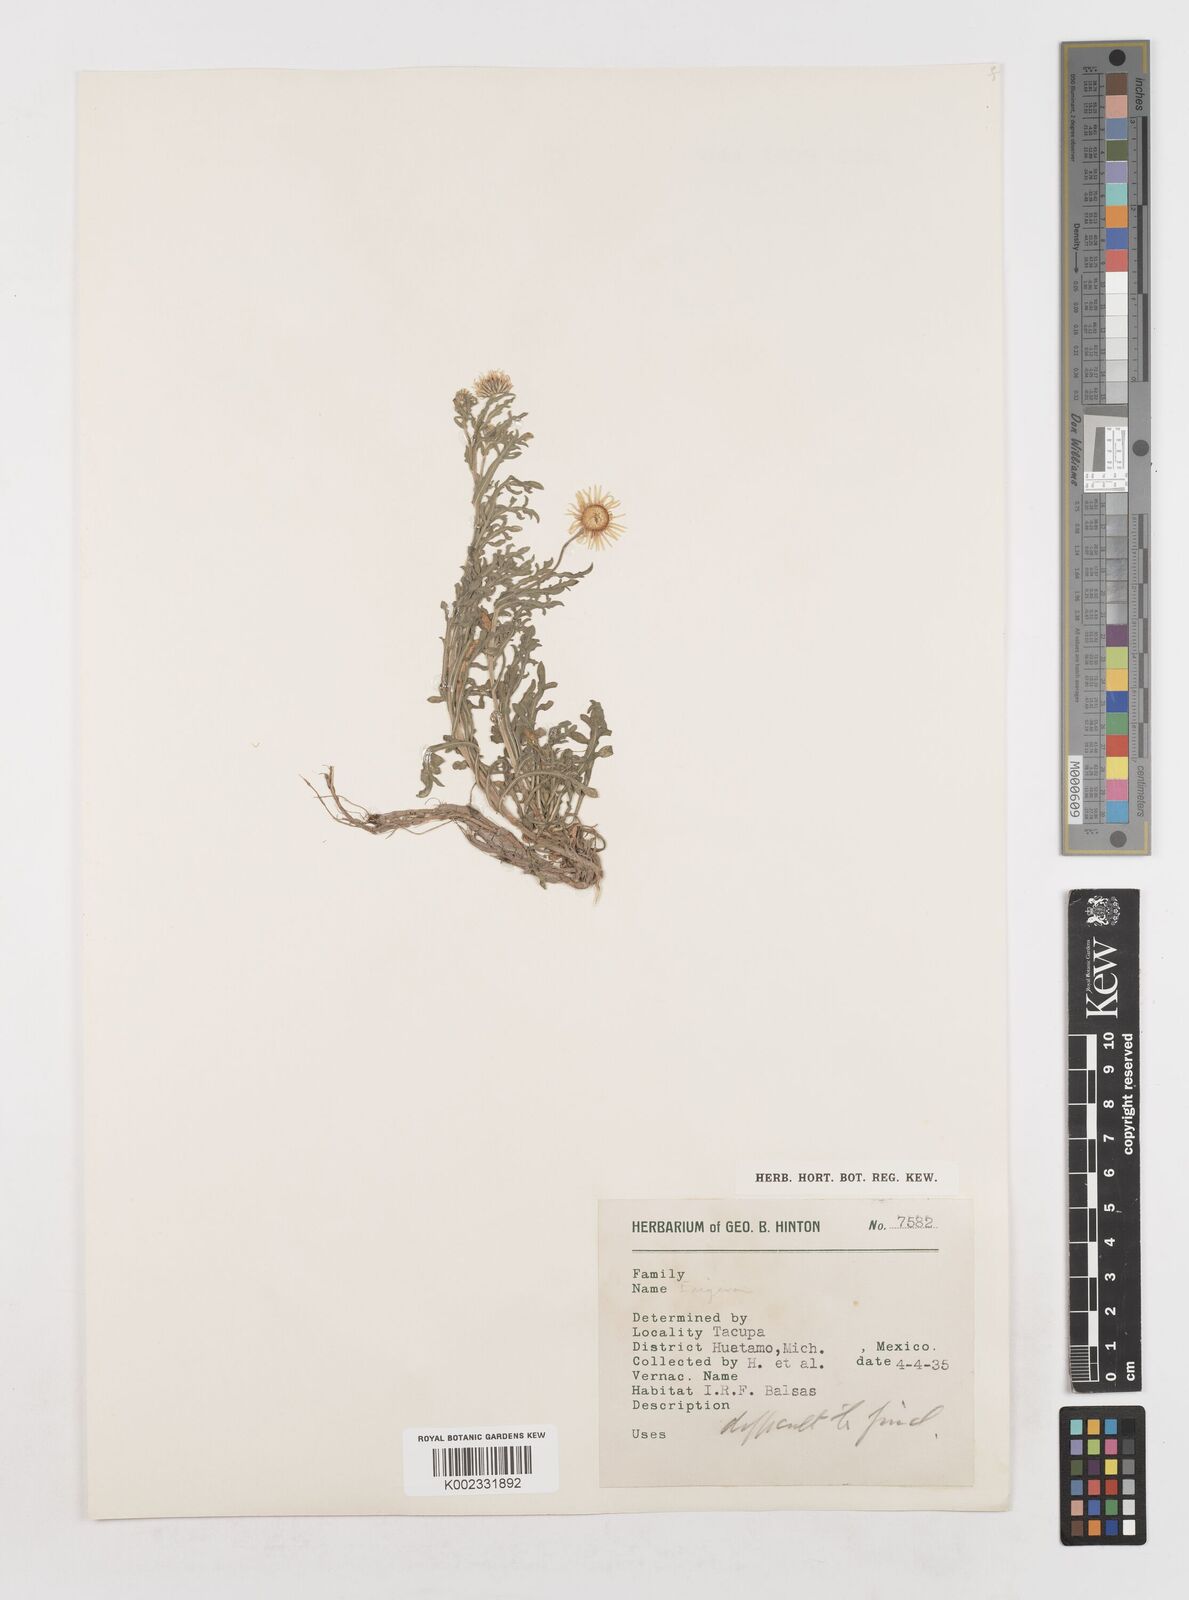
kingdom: Plantae
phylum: Tracheophyta
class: Magnoliopsida
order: Asterales
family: Asteraceae
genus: Erigeron
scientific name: Erigeron
